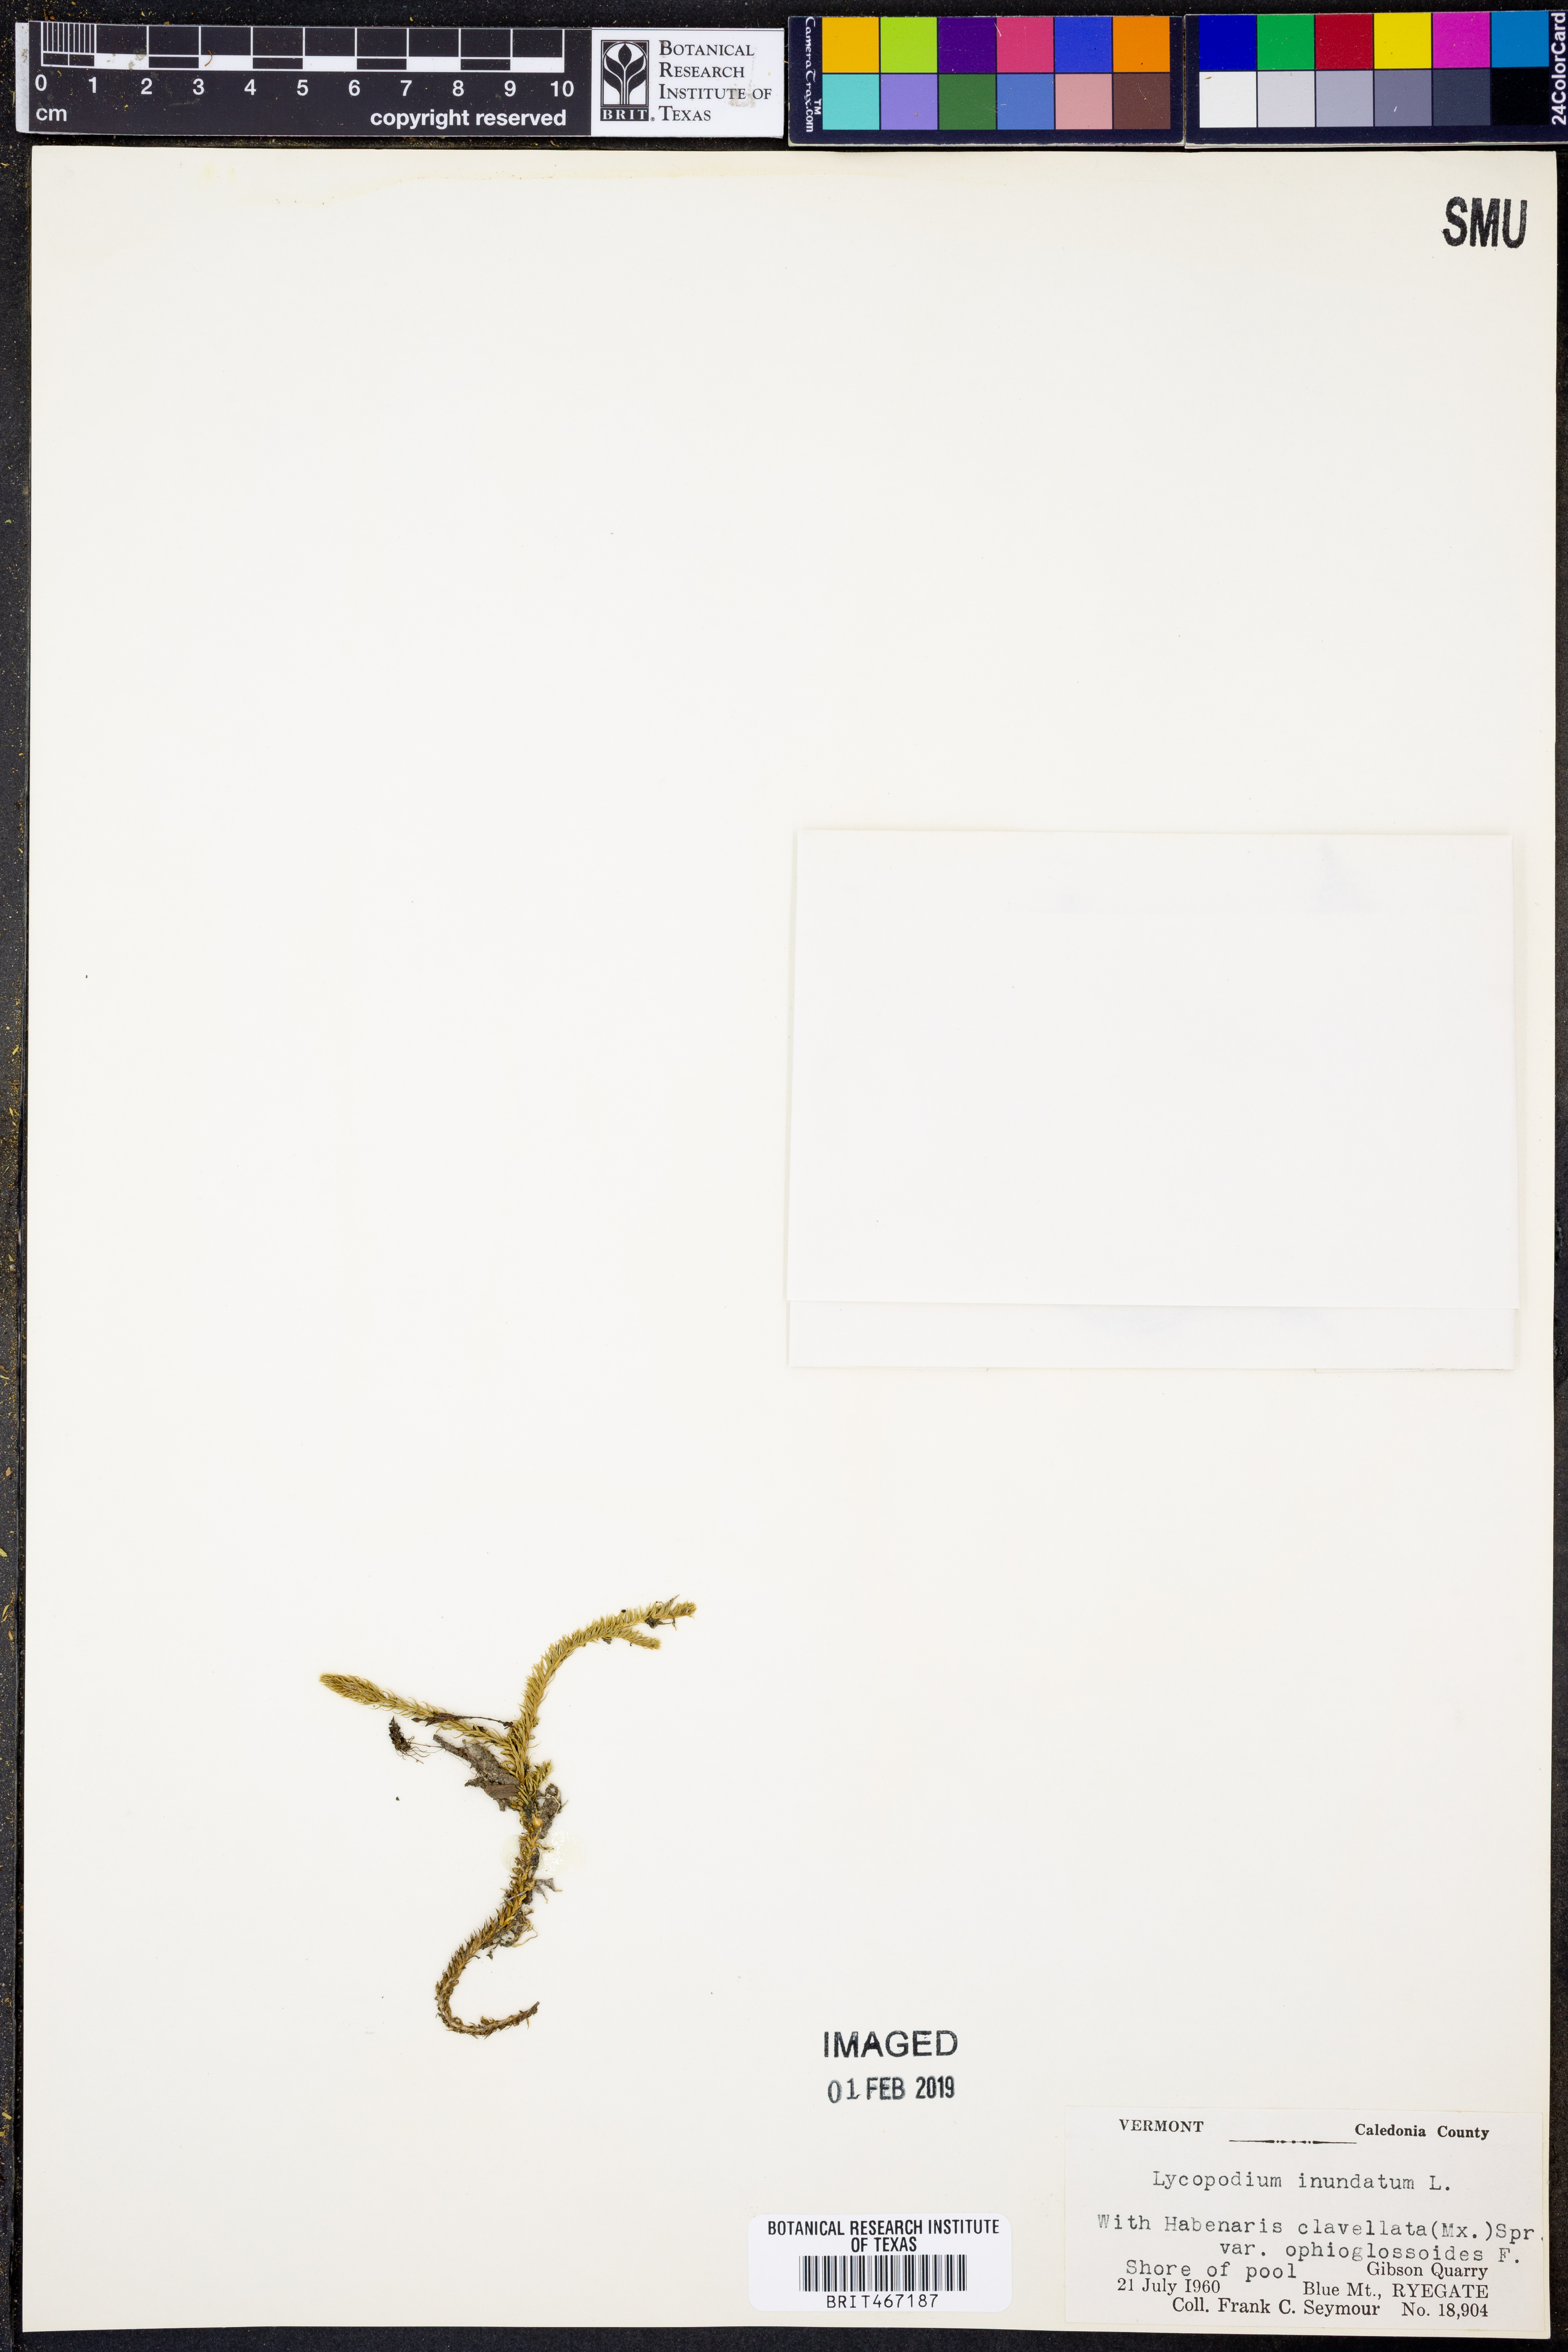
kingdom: Plantae
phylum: Tracheophyta
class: Lycopodiopsida
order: Lycopodiales
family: Lycopodiaceae
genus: Lycopodiella
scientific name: Lycopodiella inundata
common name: Marsh clubmoss
